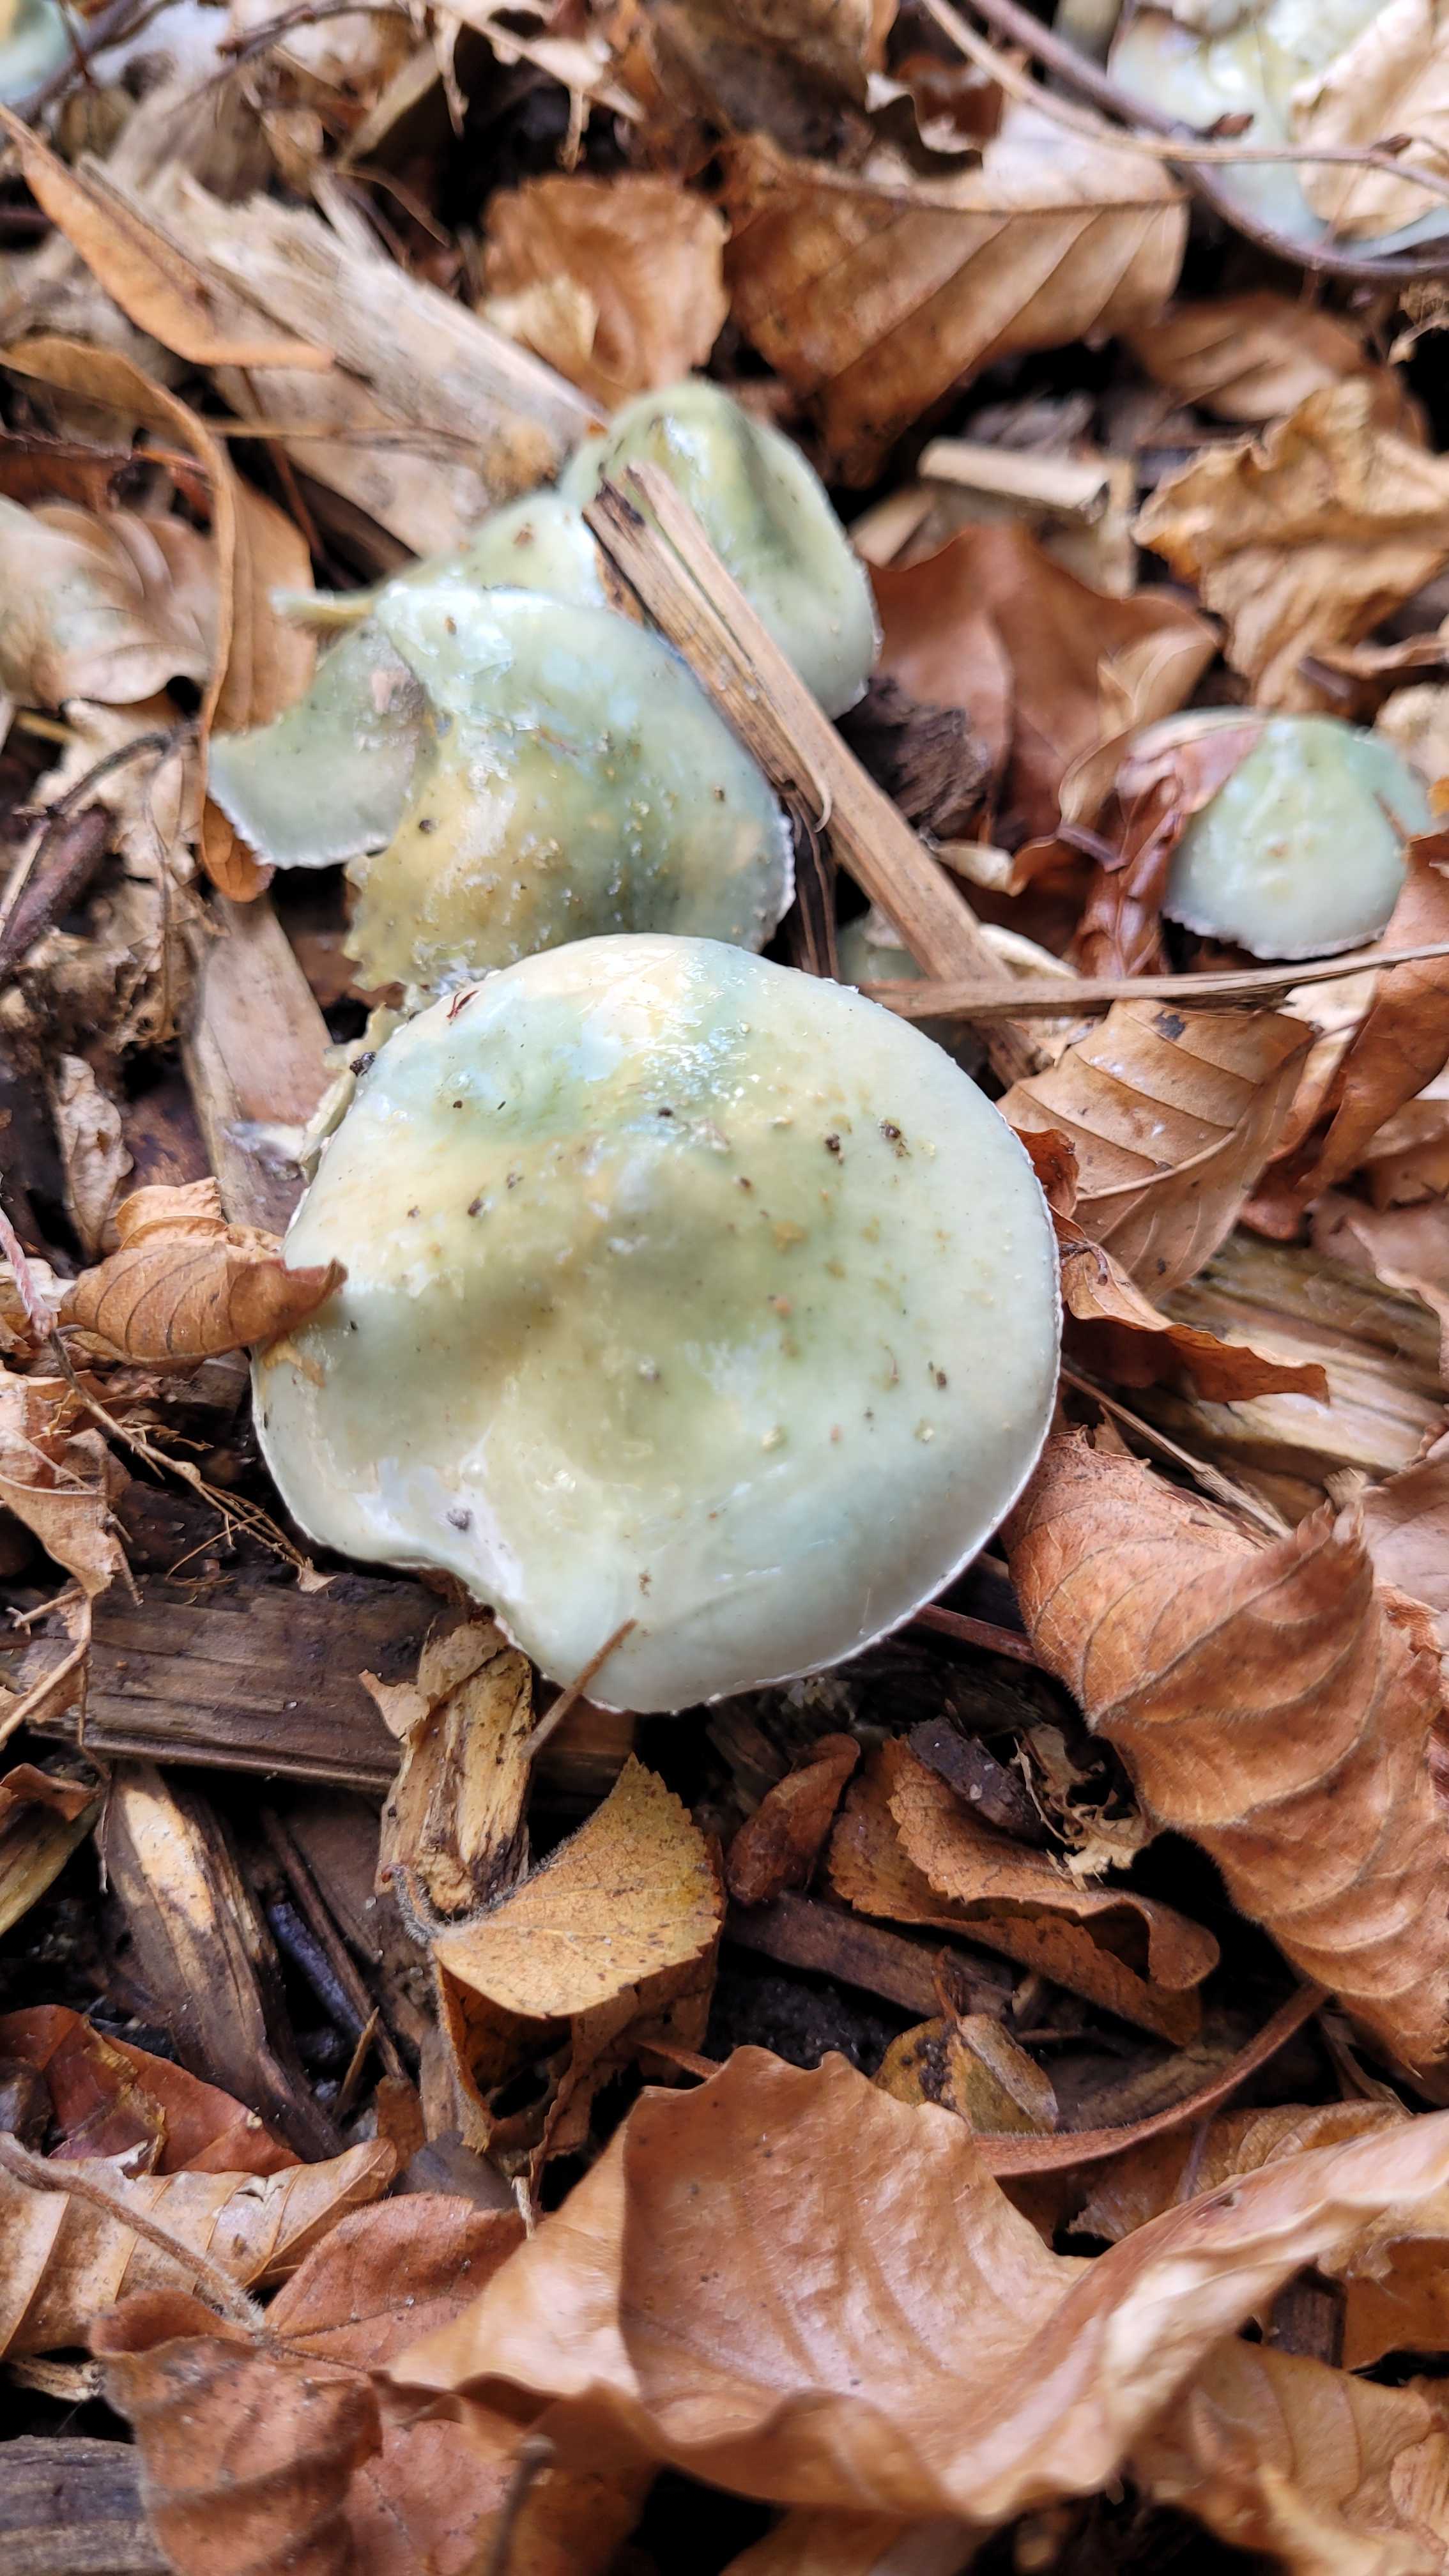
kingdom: Fungi
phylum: Basidiomycota
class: Agaricomycetes
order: Agaricales
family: Strophariaceae
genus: Stropharia
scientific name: Stropharia cyanea
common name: blågrøn bredblad
